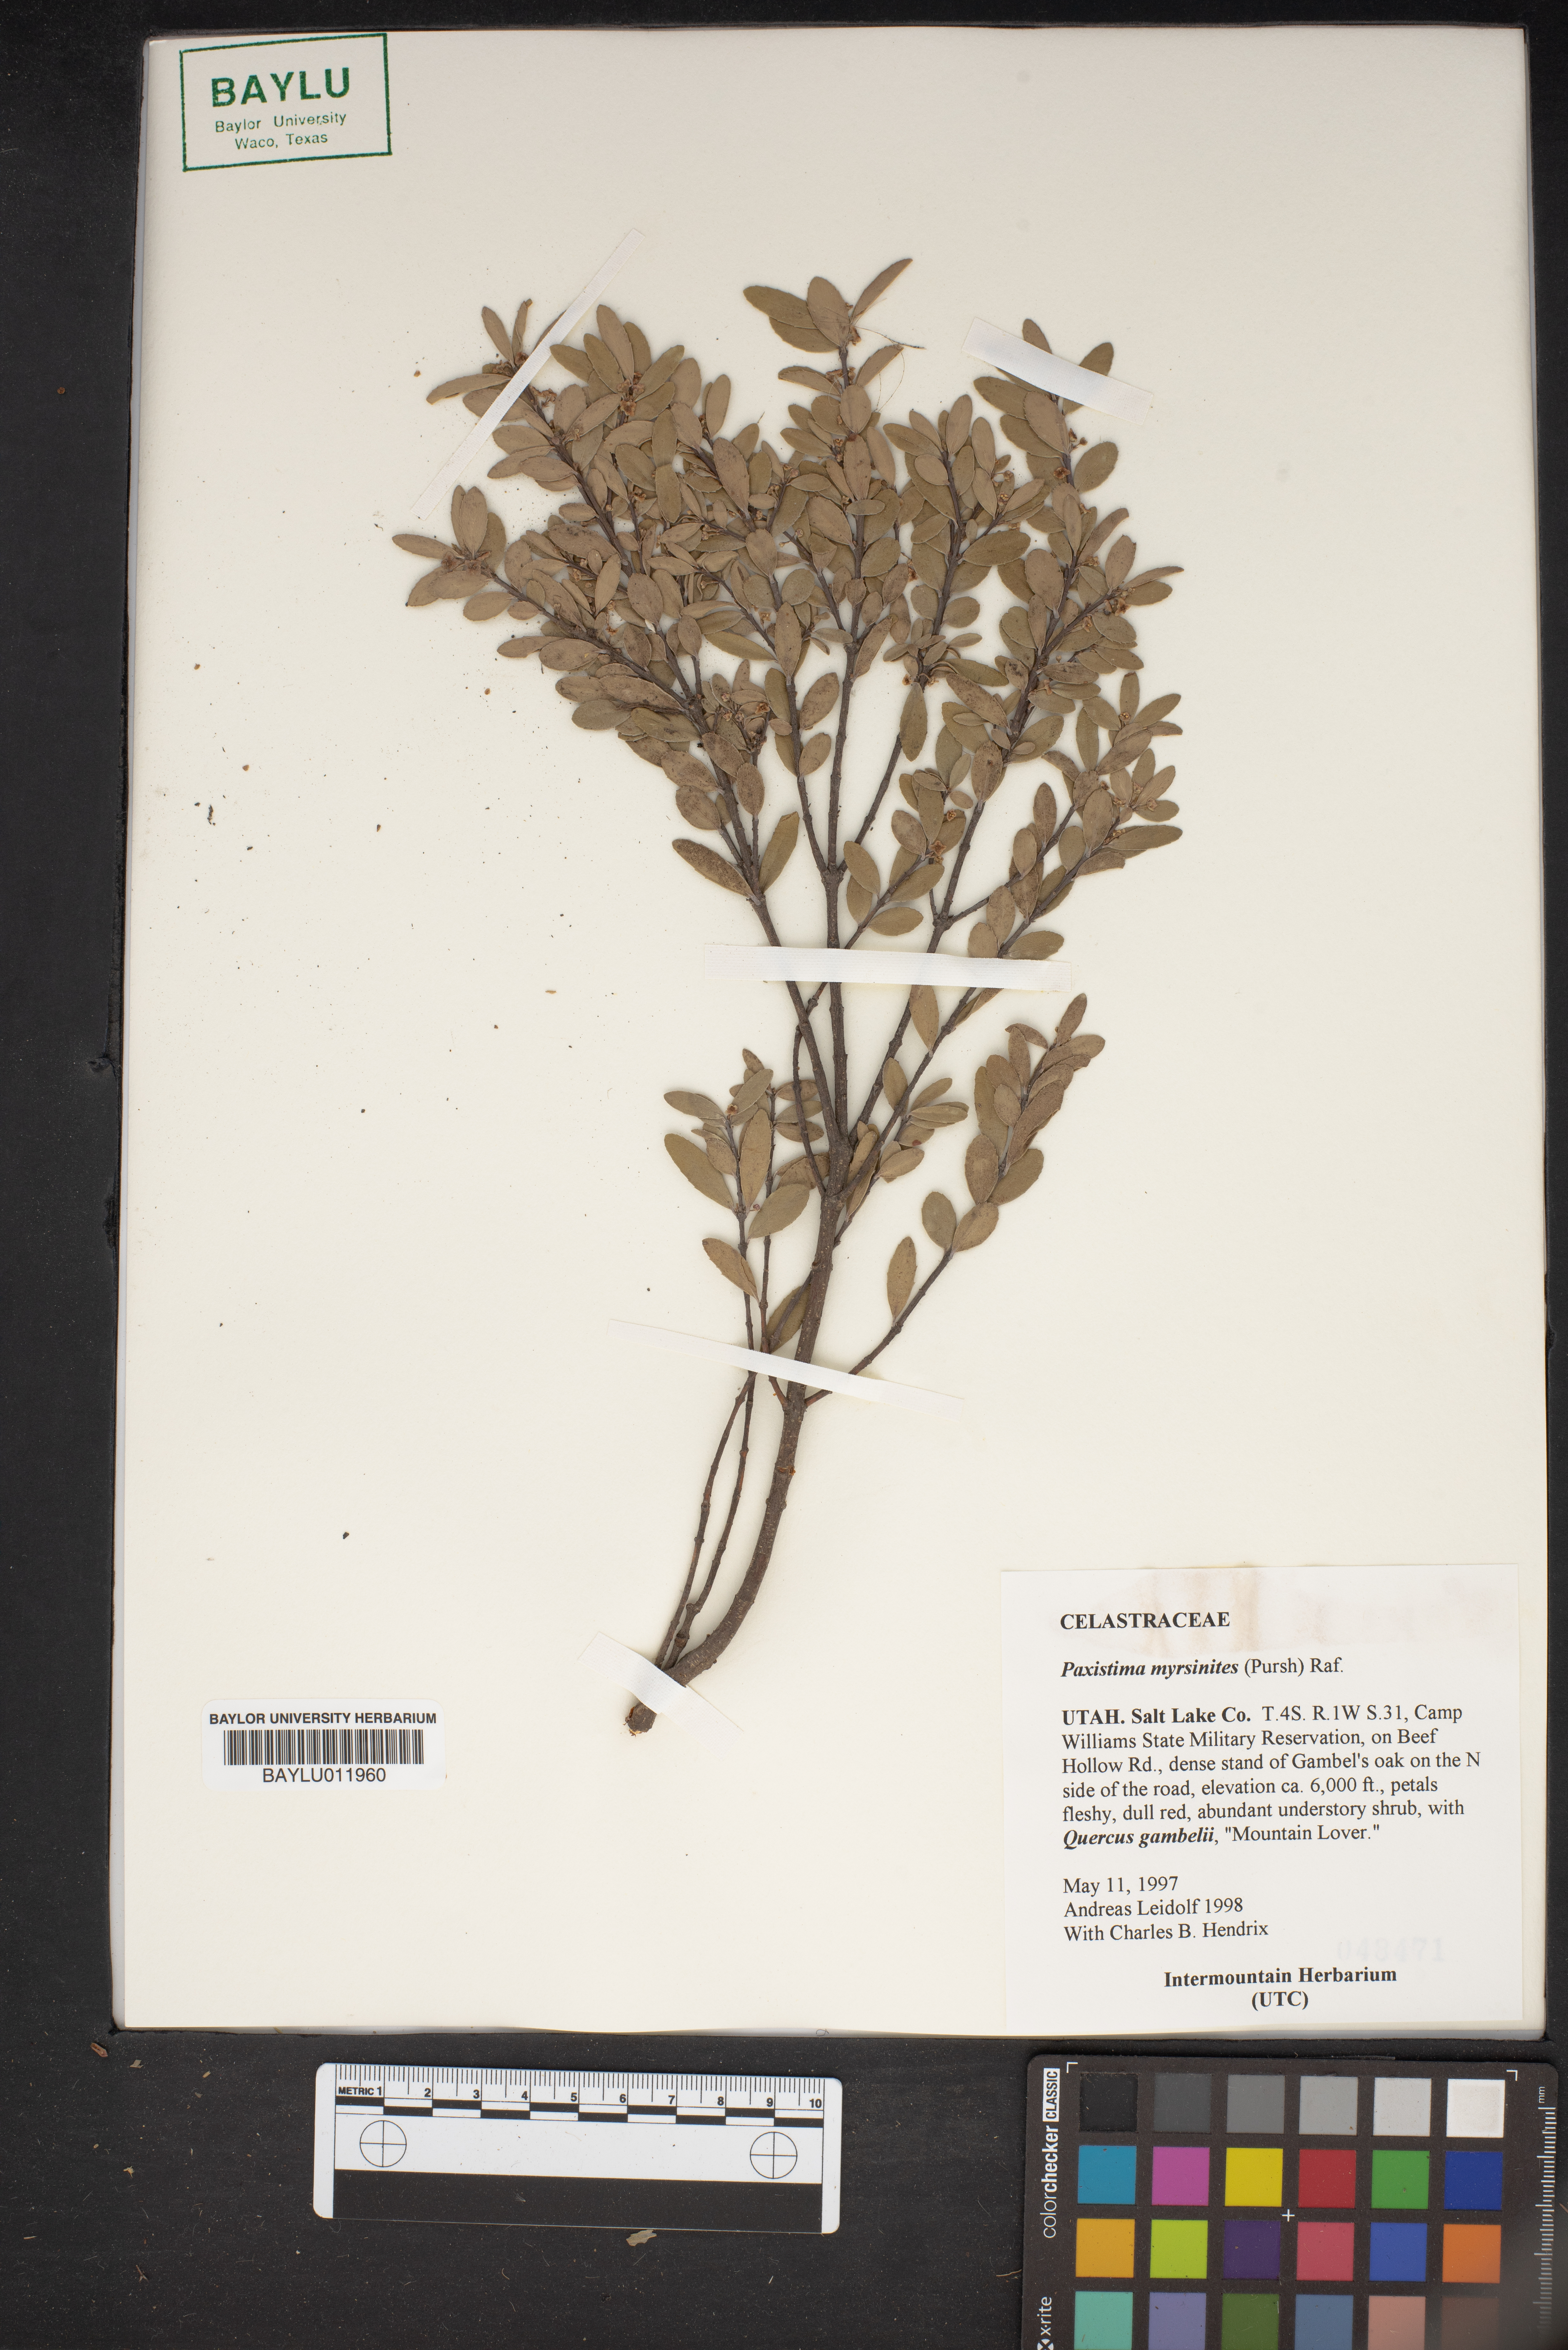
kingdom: Plantae
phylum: Tracheophyta
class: Magnoliopsida
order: Celastrales
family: Celastraceae
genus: Paxistima
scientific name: Paxistima myrsinites
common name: Mountain-lover
